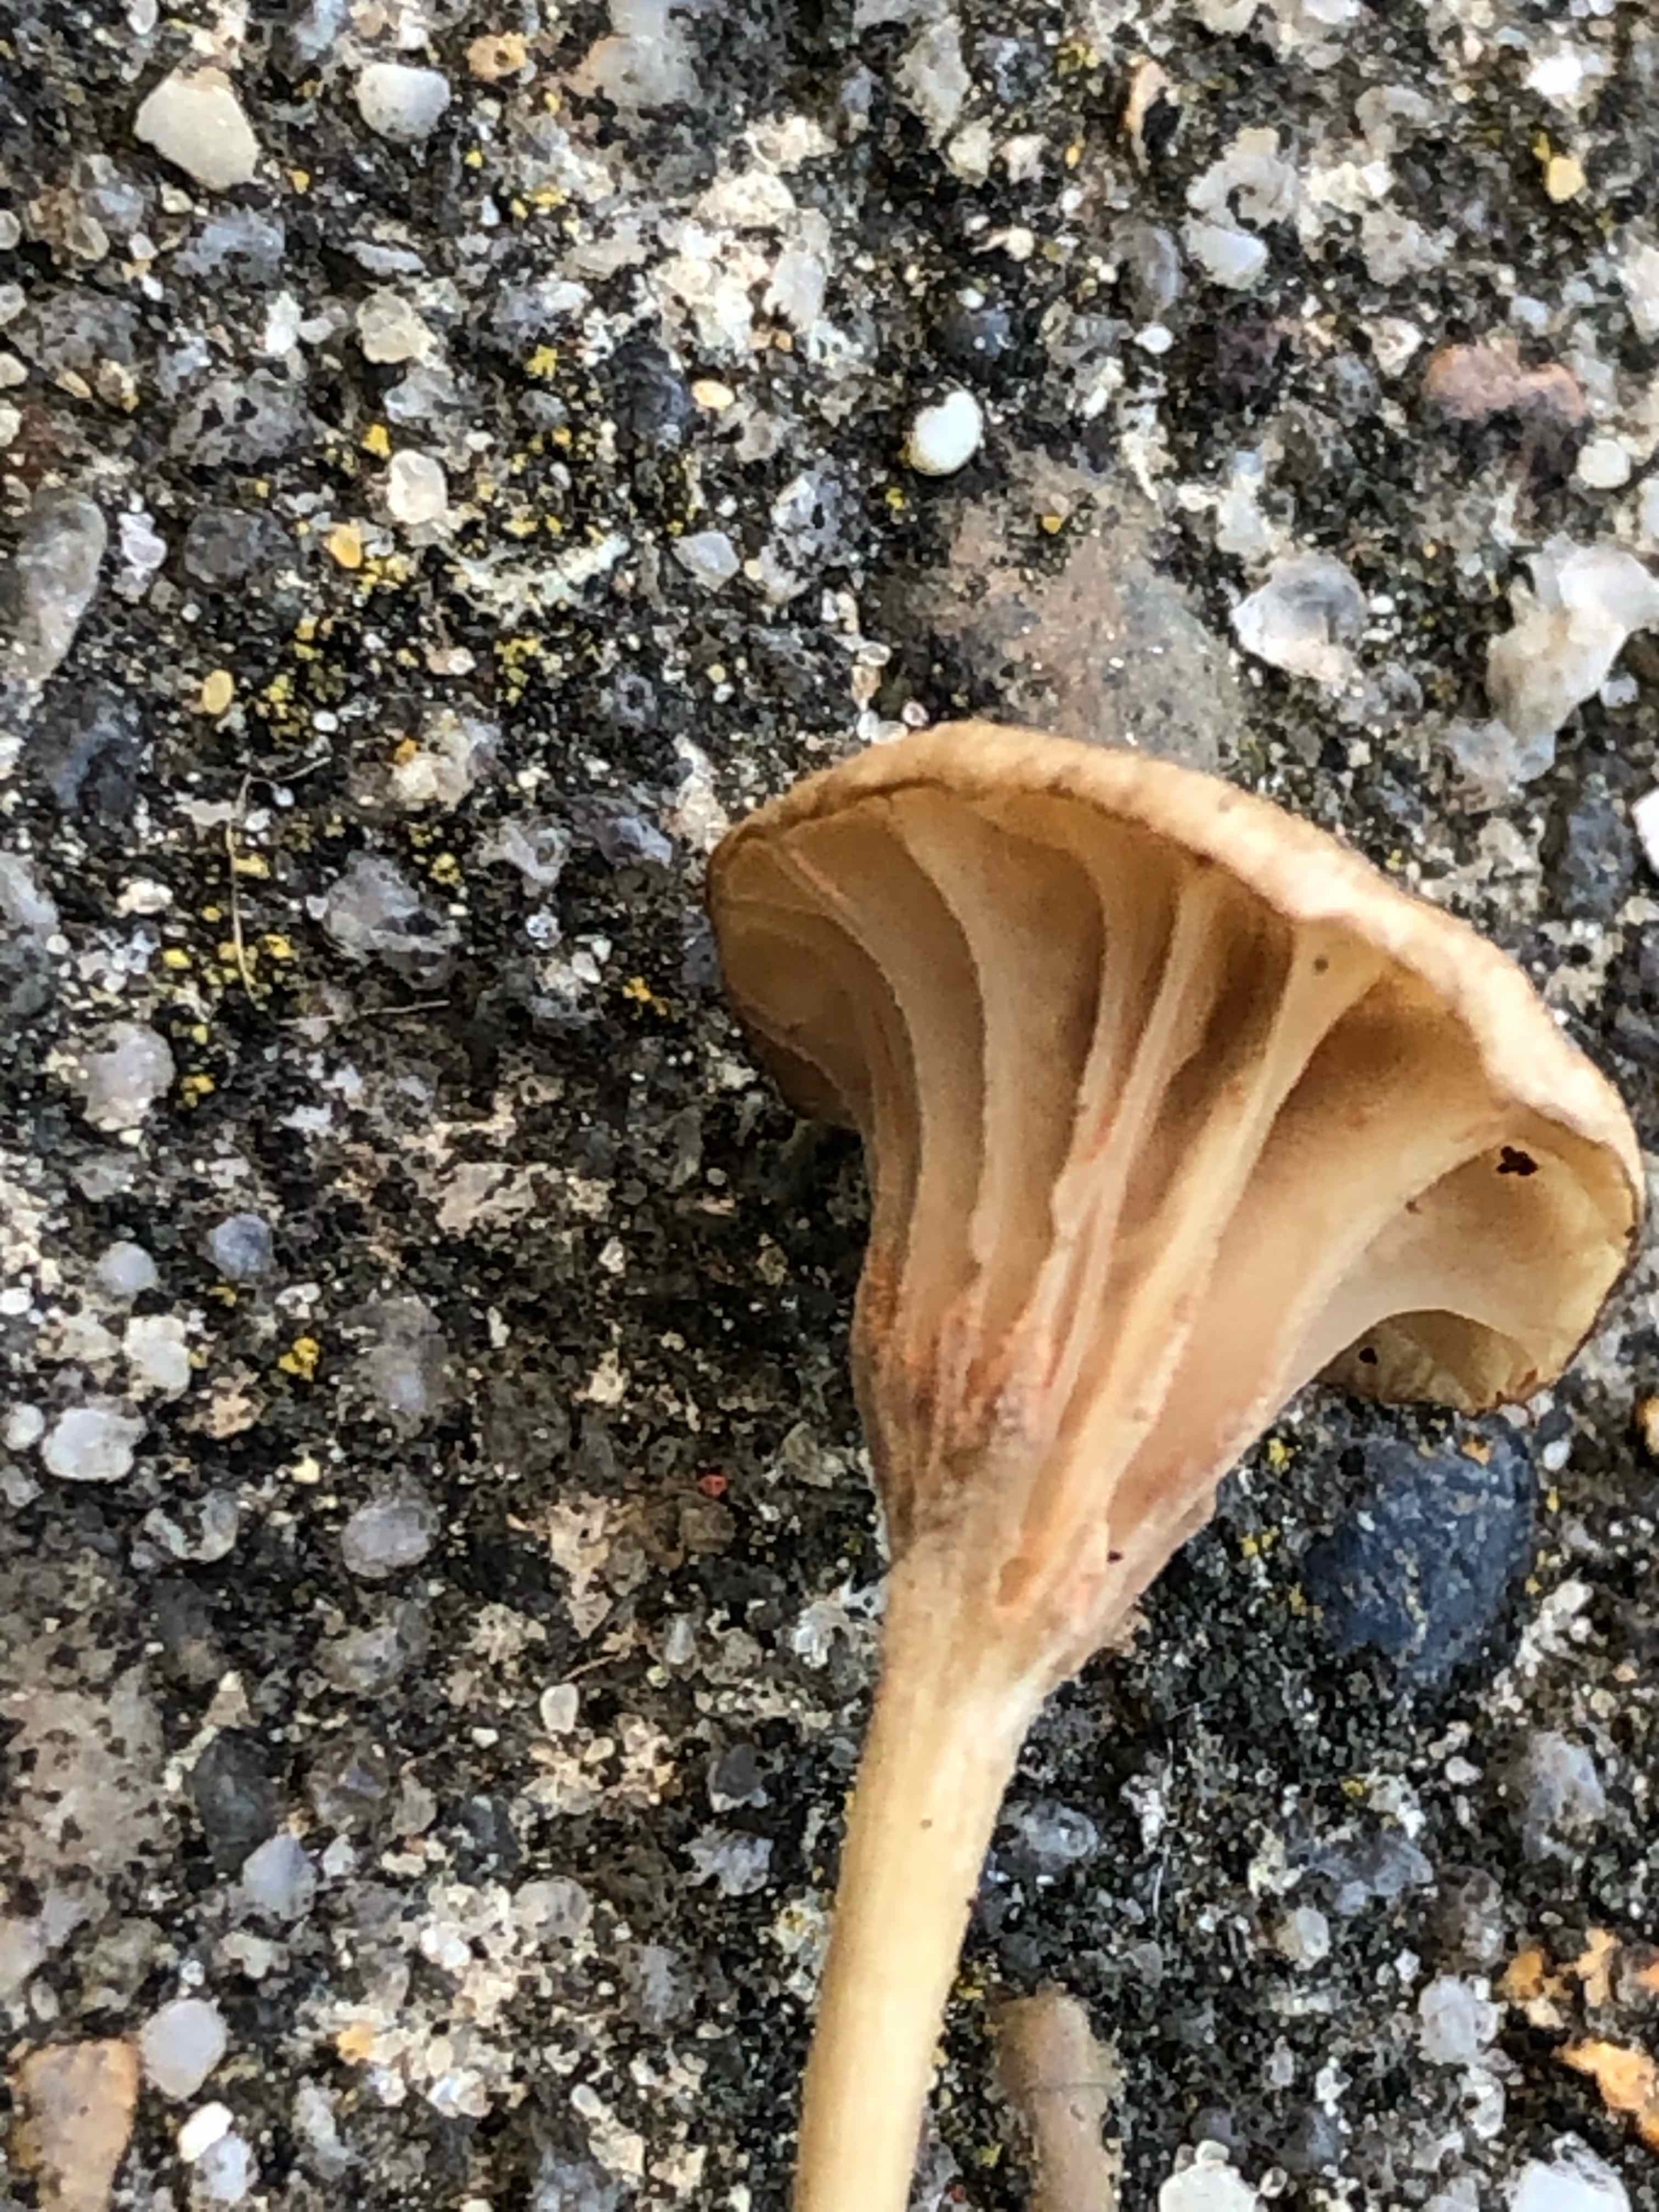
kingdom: Fungi
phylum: Basidiomycota
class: Agaricomycetes
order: Agaricales
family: Entolomataceae
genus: Entoloma
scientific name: Entoloma rhodocylix
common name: fjernbladet rødblad
